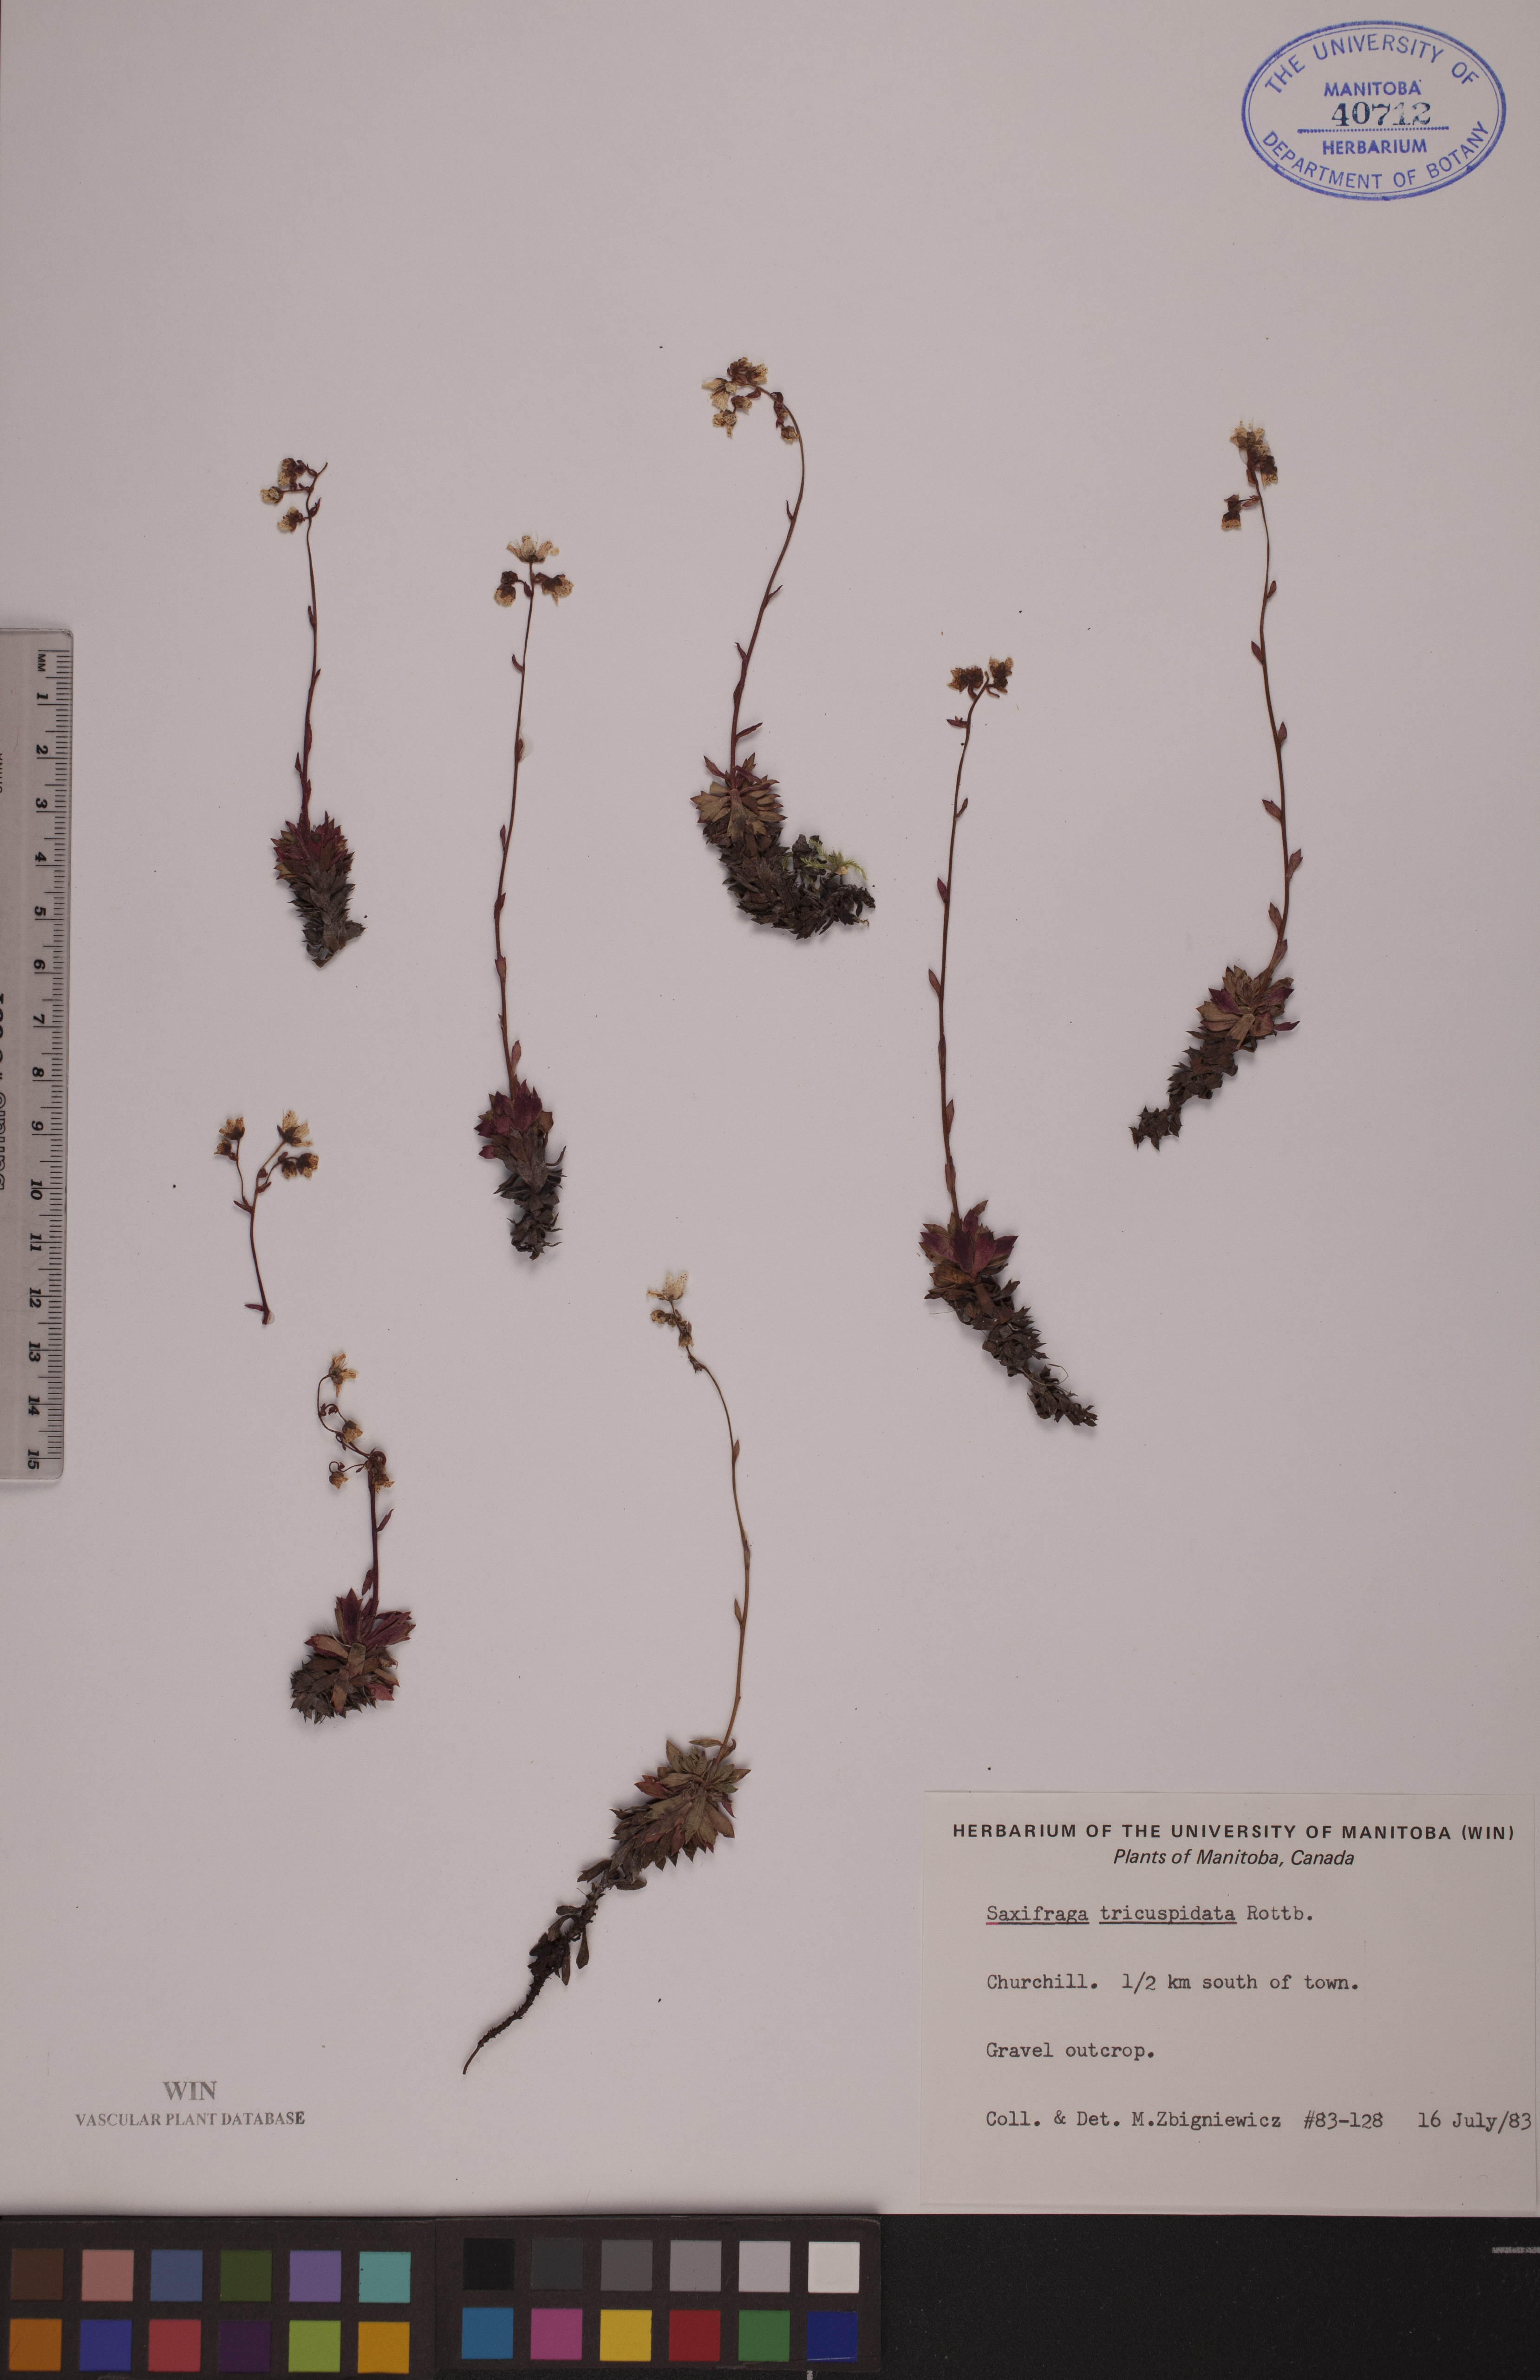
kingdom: Plantae
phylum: Tracheophyta
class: Magnoliopsida
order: Saxifragales
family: Saxifragaceae
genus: Saxifraga
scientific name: Saxifraga tricuspidata
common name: Prickly saxifrage
